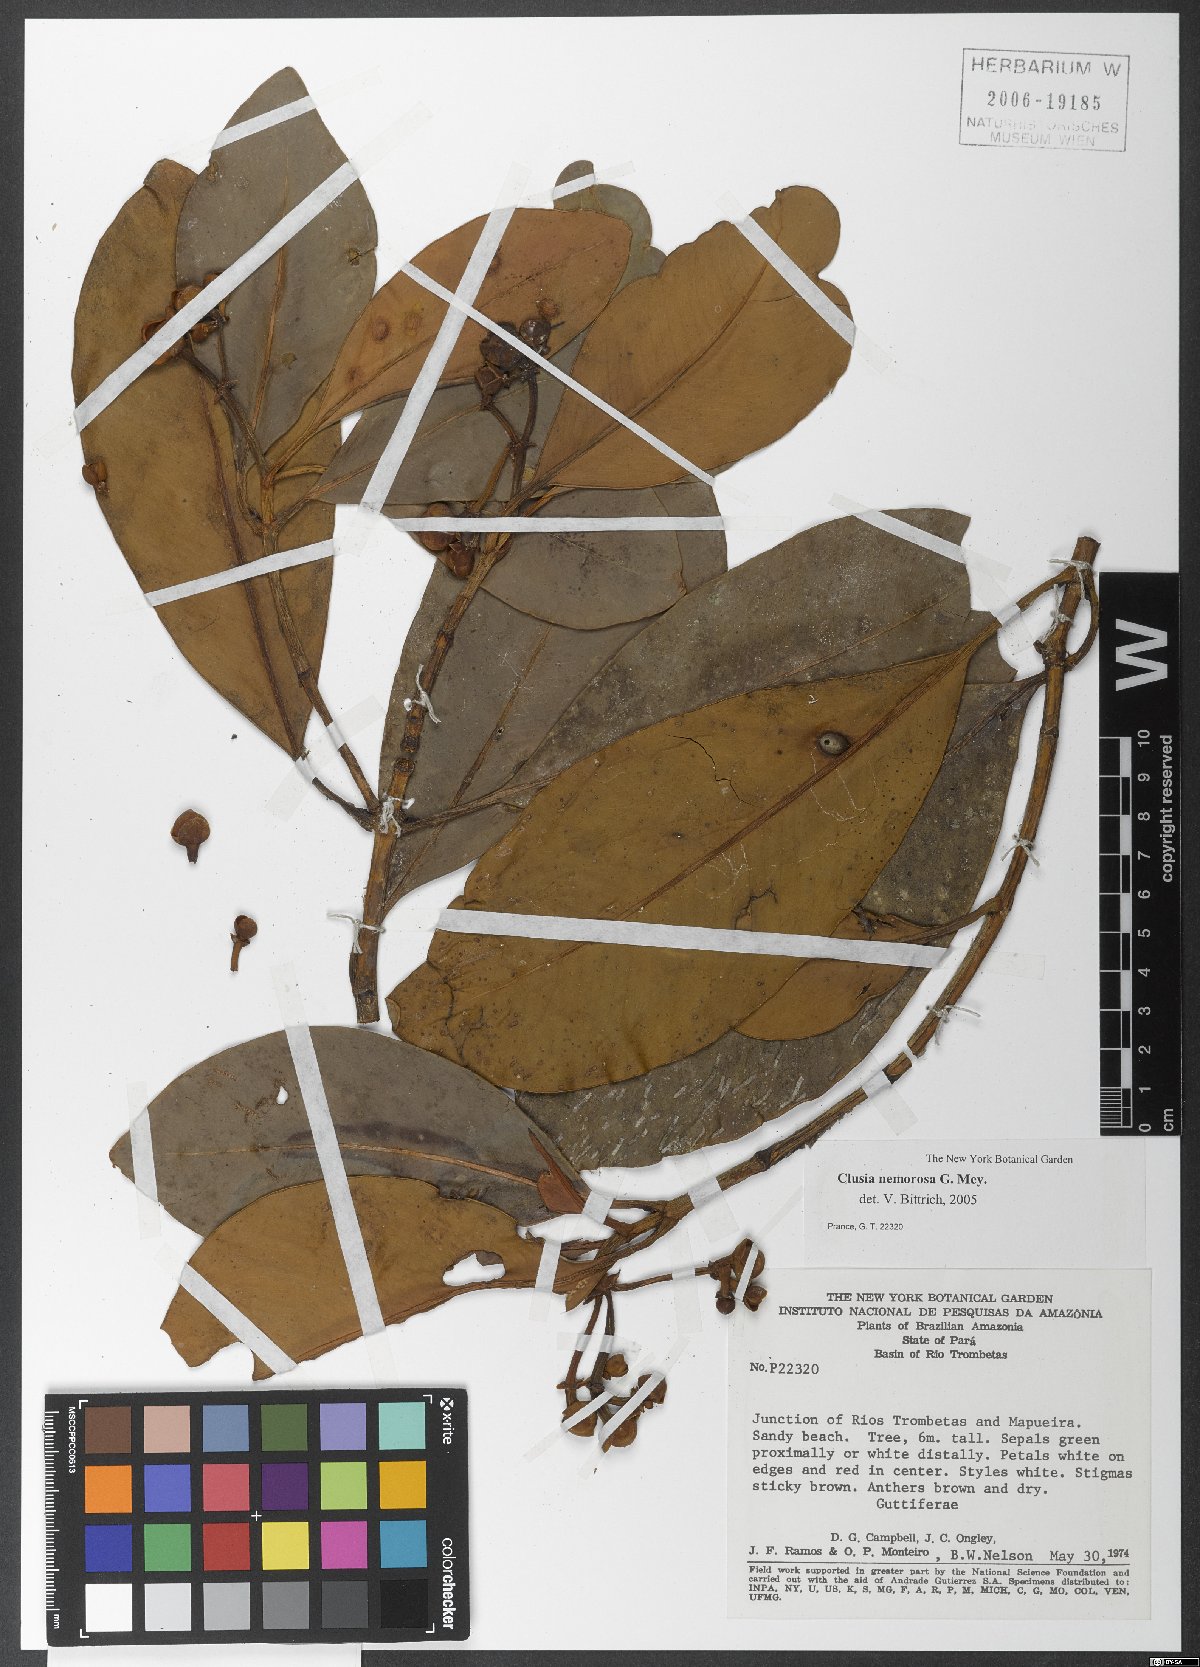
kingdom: Plantae
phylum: Tracheophyta
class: Magnoliopsida
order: Malpighiales
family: Clusiaceae
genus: Clusia
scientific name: Clusia nemorosa
